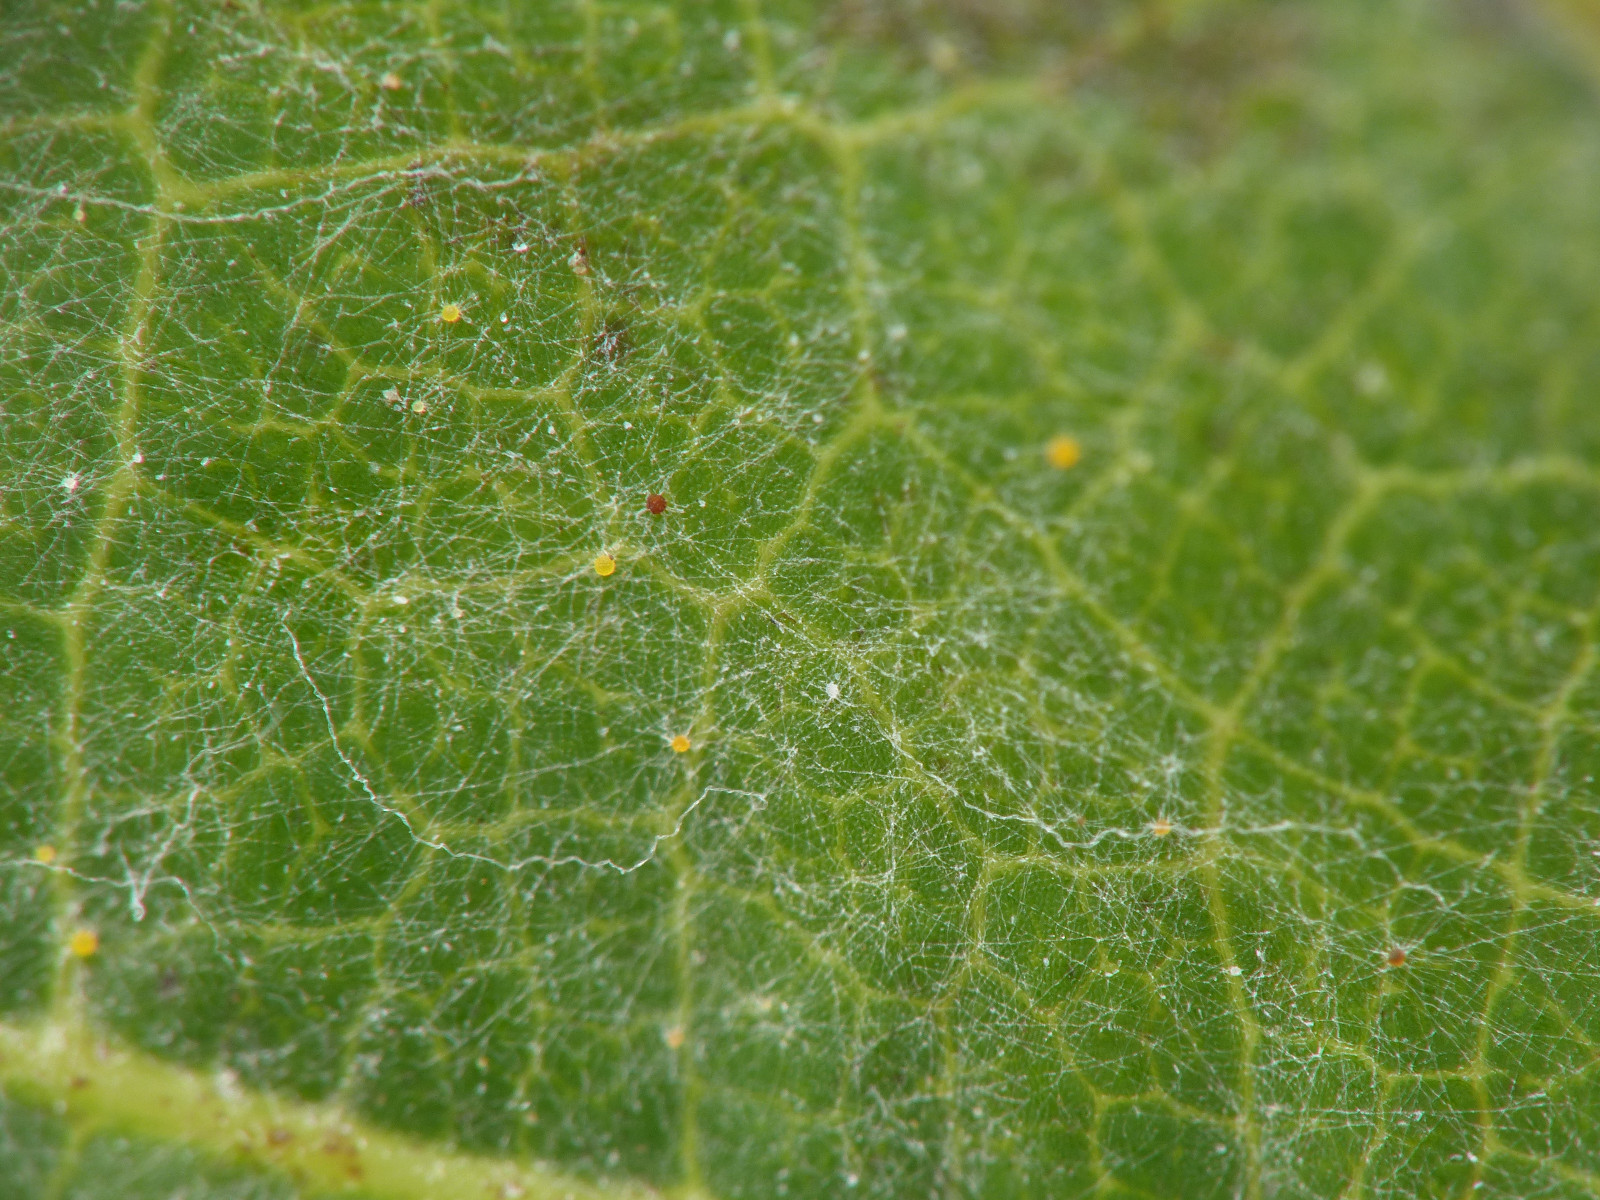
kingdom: Fungi
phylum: Ascomycota
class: Leotiomycetes
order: Helotiales
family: Erysiphaceae
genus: Erysiphe
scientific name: Erysiphe necator
